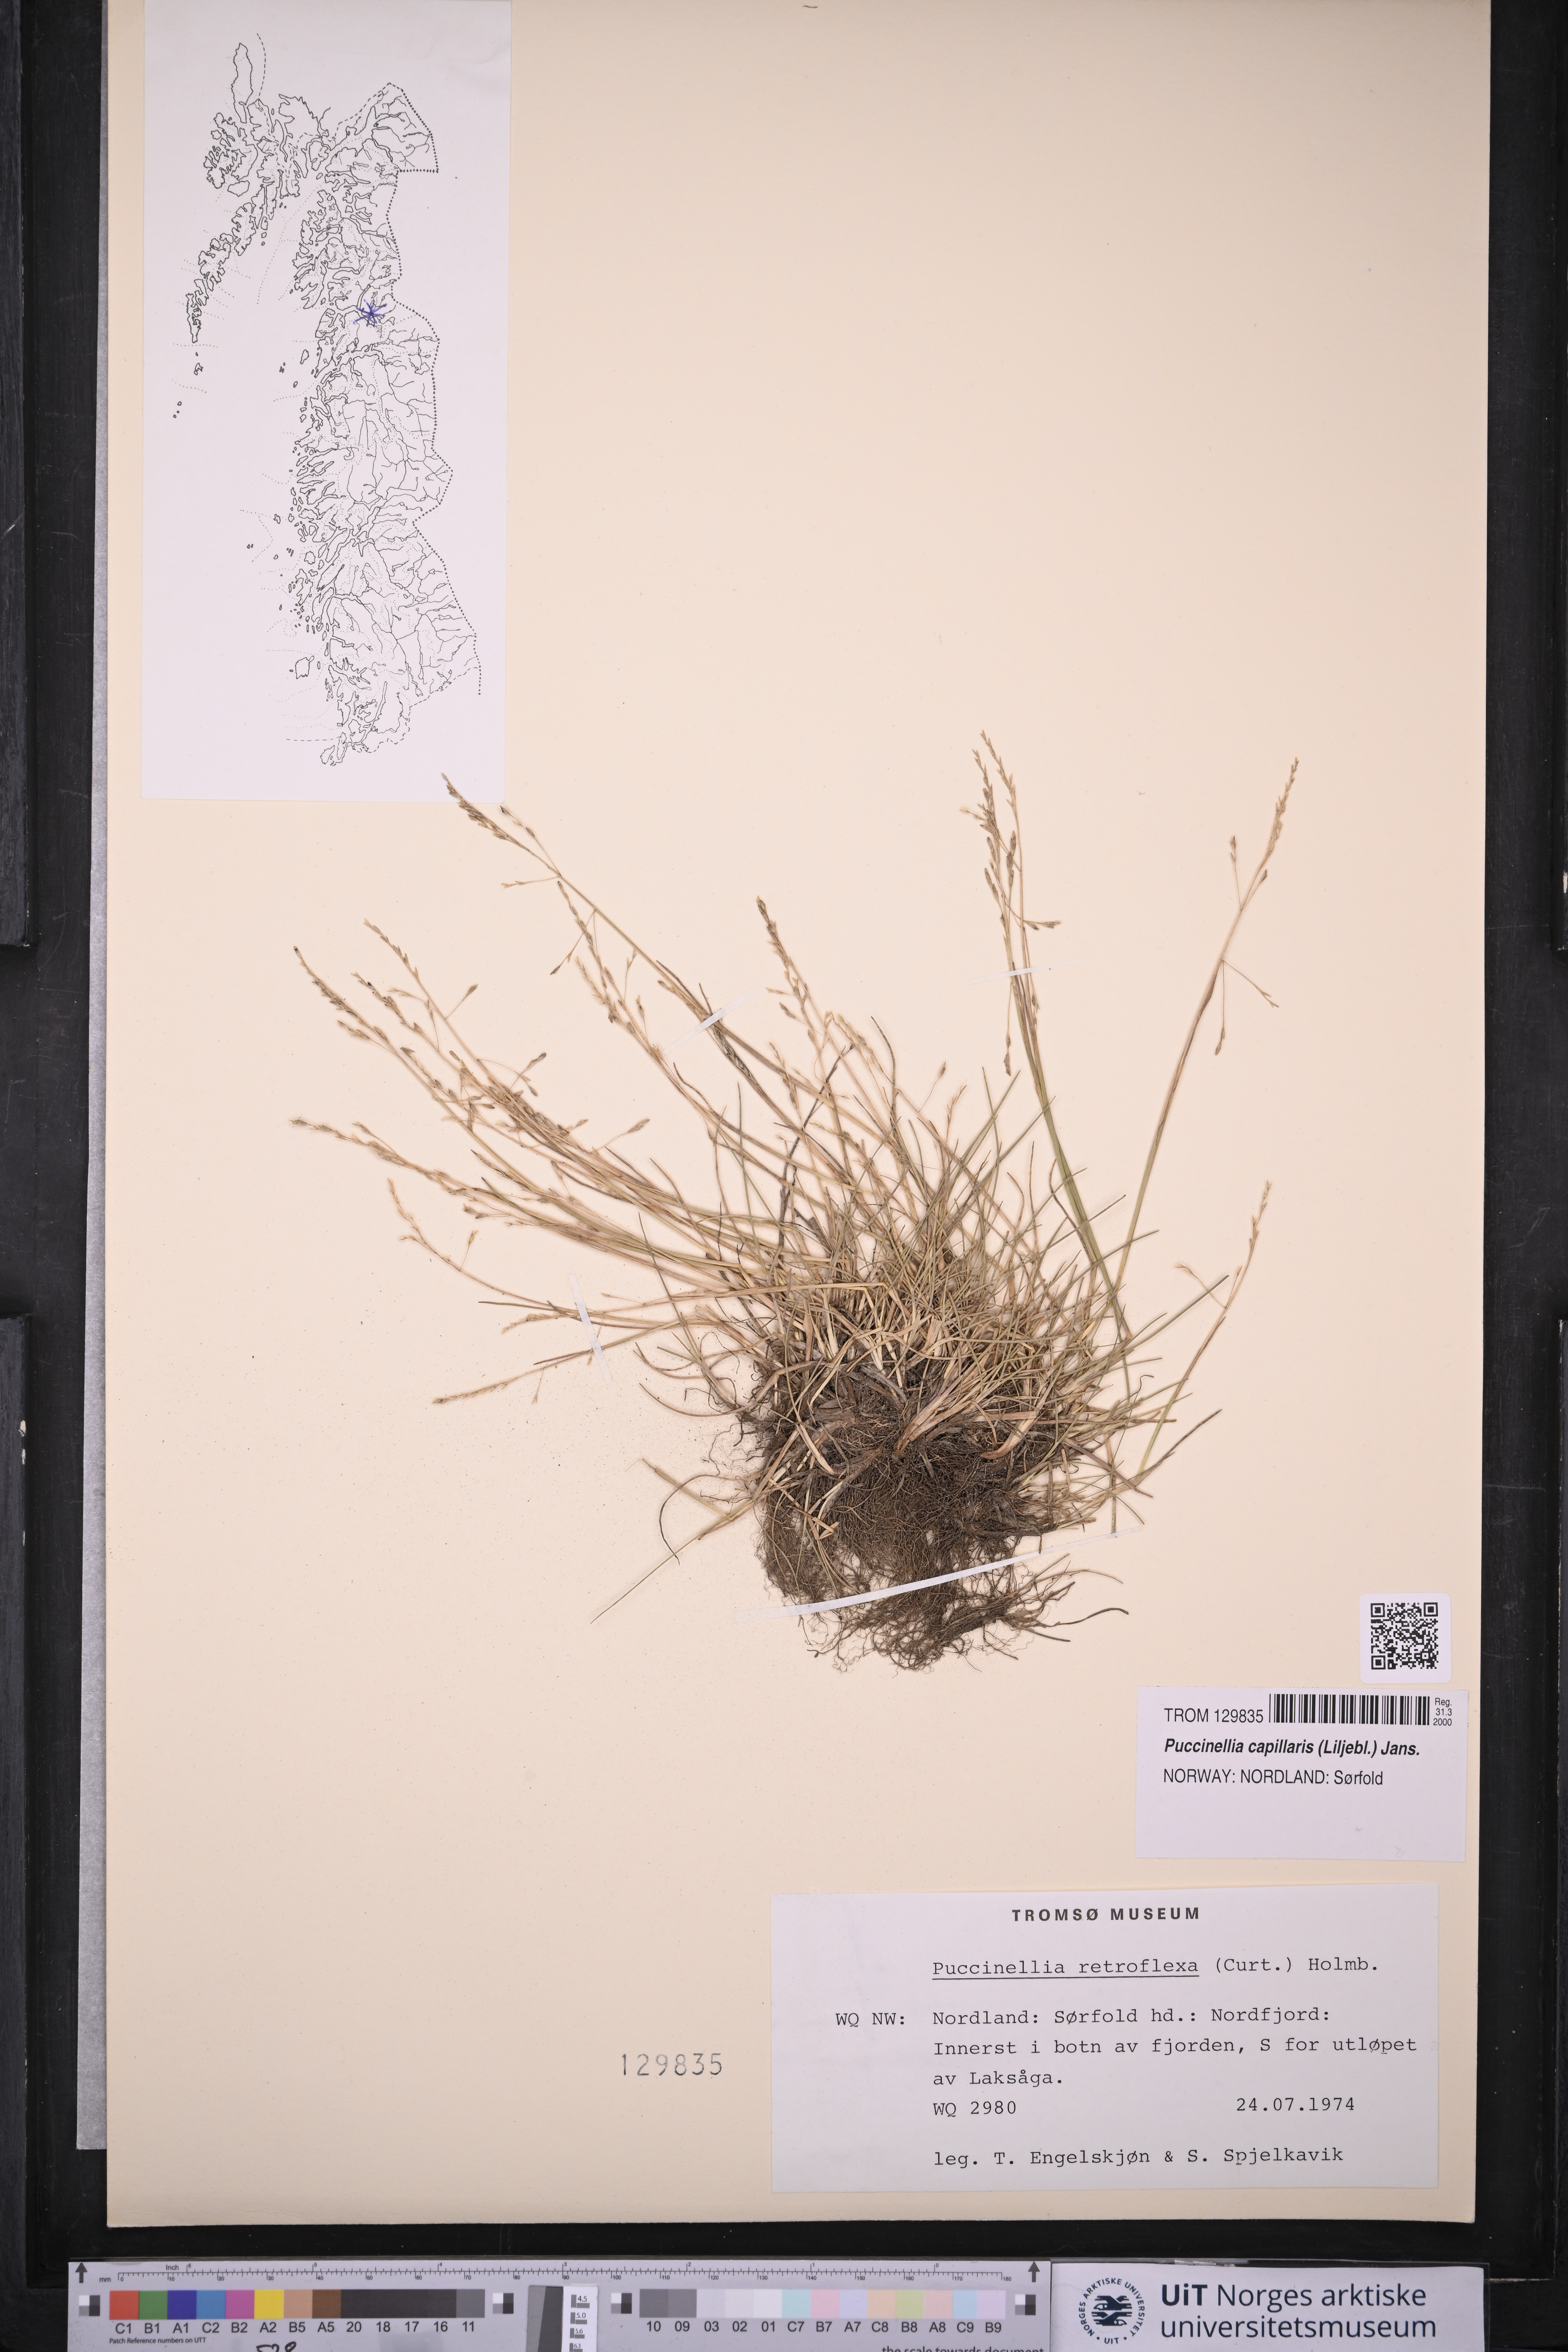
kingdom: Plantae
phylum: Tracheophyta
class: Liliopsida
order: Poales
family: Poaceae
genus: Puccinellia
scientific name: Puccinellia distans
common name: Weeping alkaligrass
